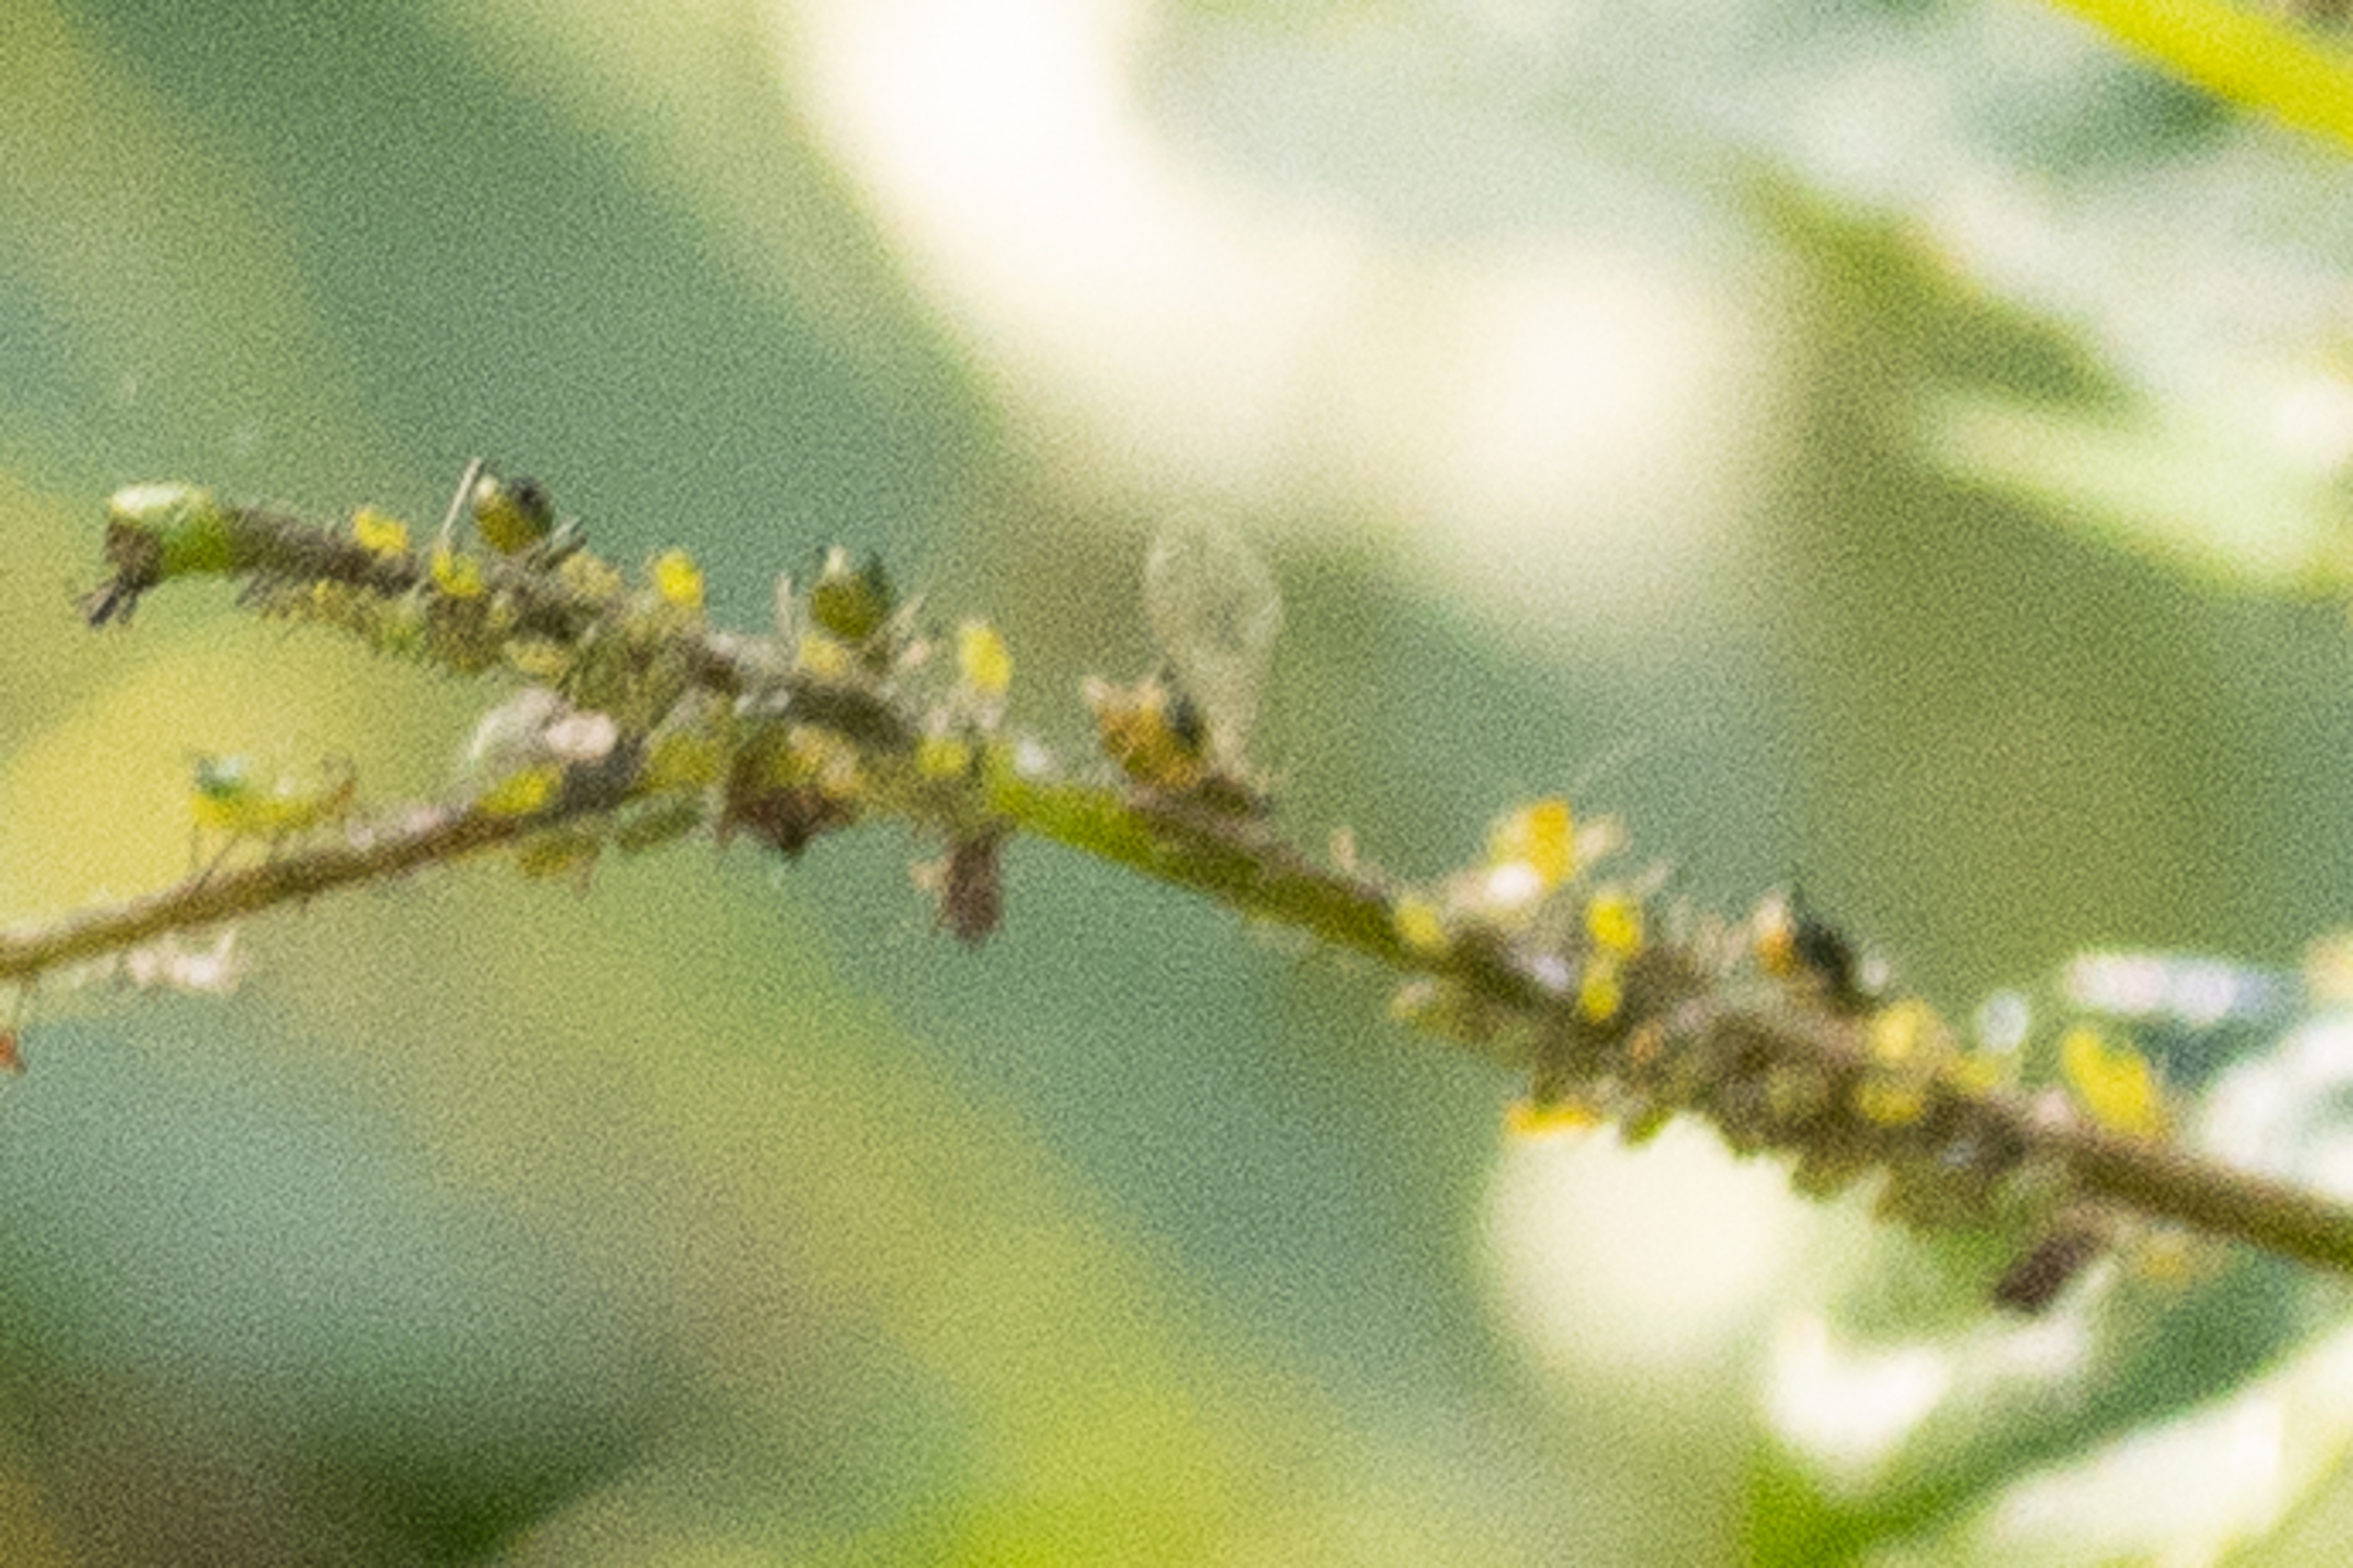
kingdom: Animalia
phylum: Arthropoda
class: Insecta
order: Hemiptera
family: Aphididae
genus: Impatientinum
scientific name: Impatientinum asiaticum
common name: Asiatisk balsaminbladlus
